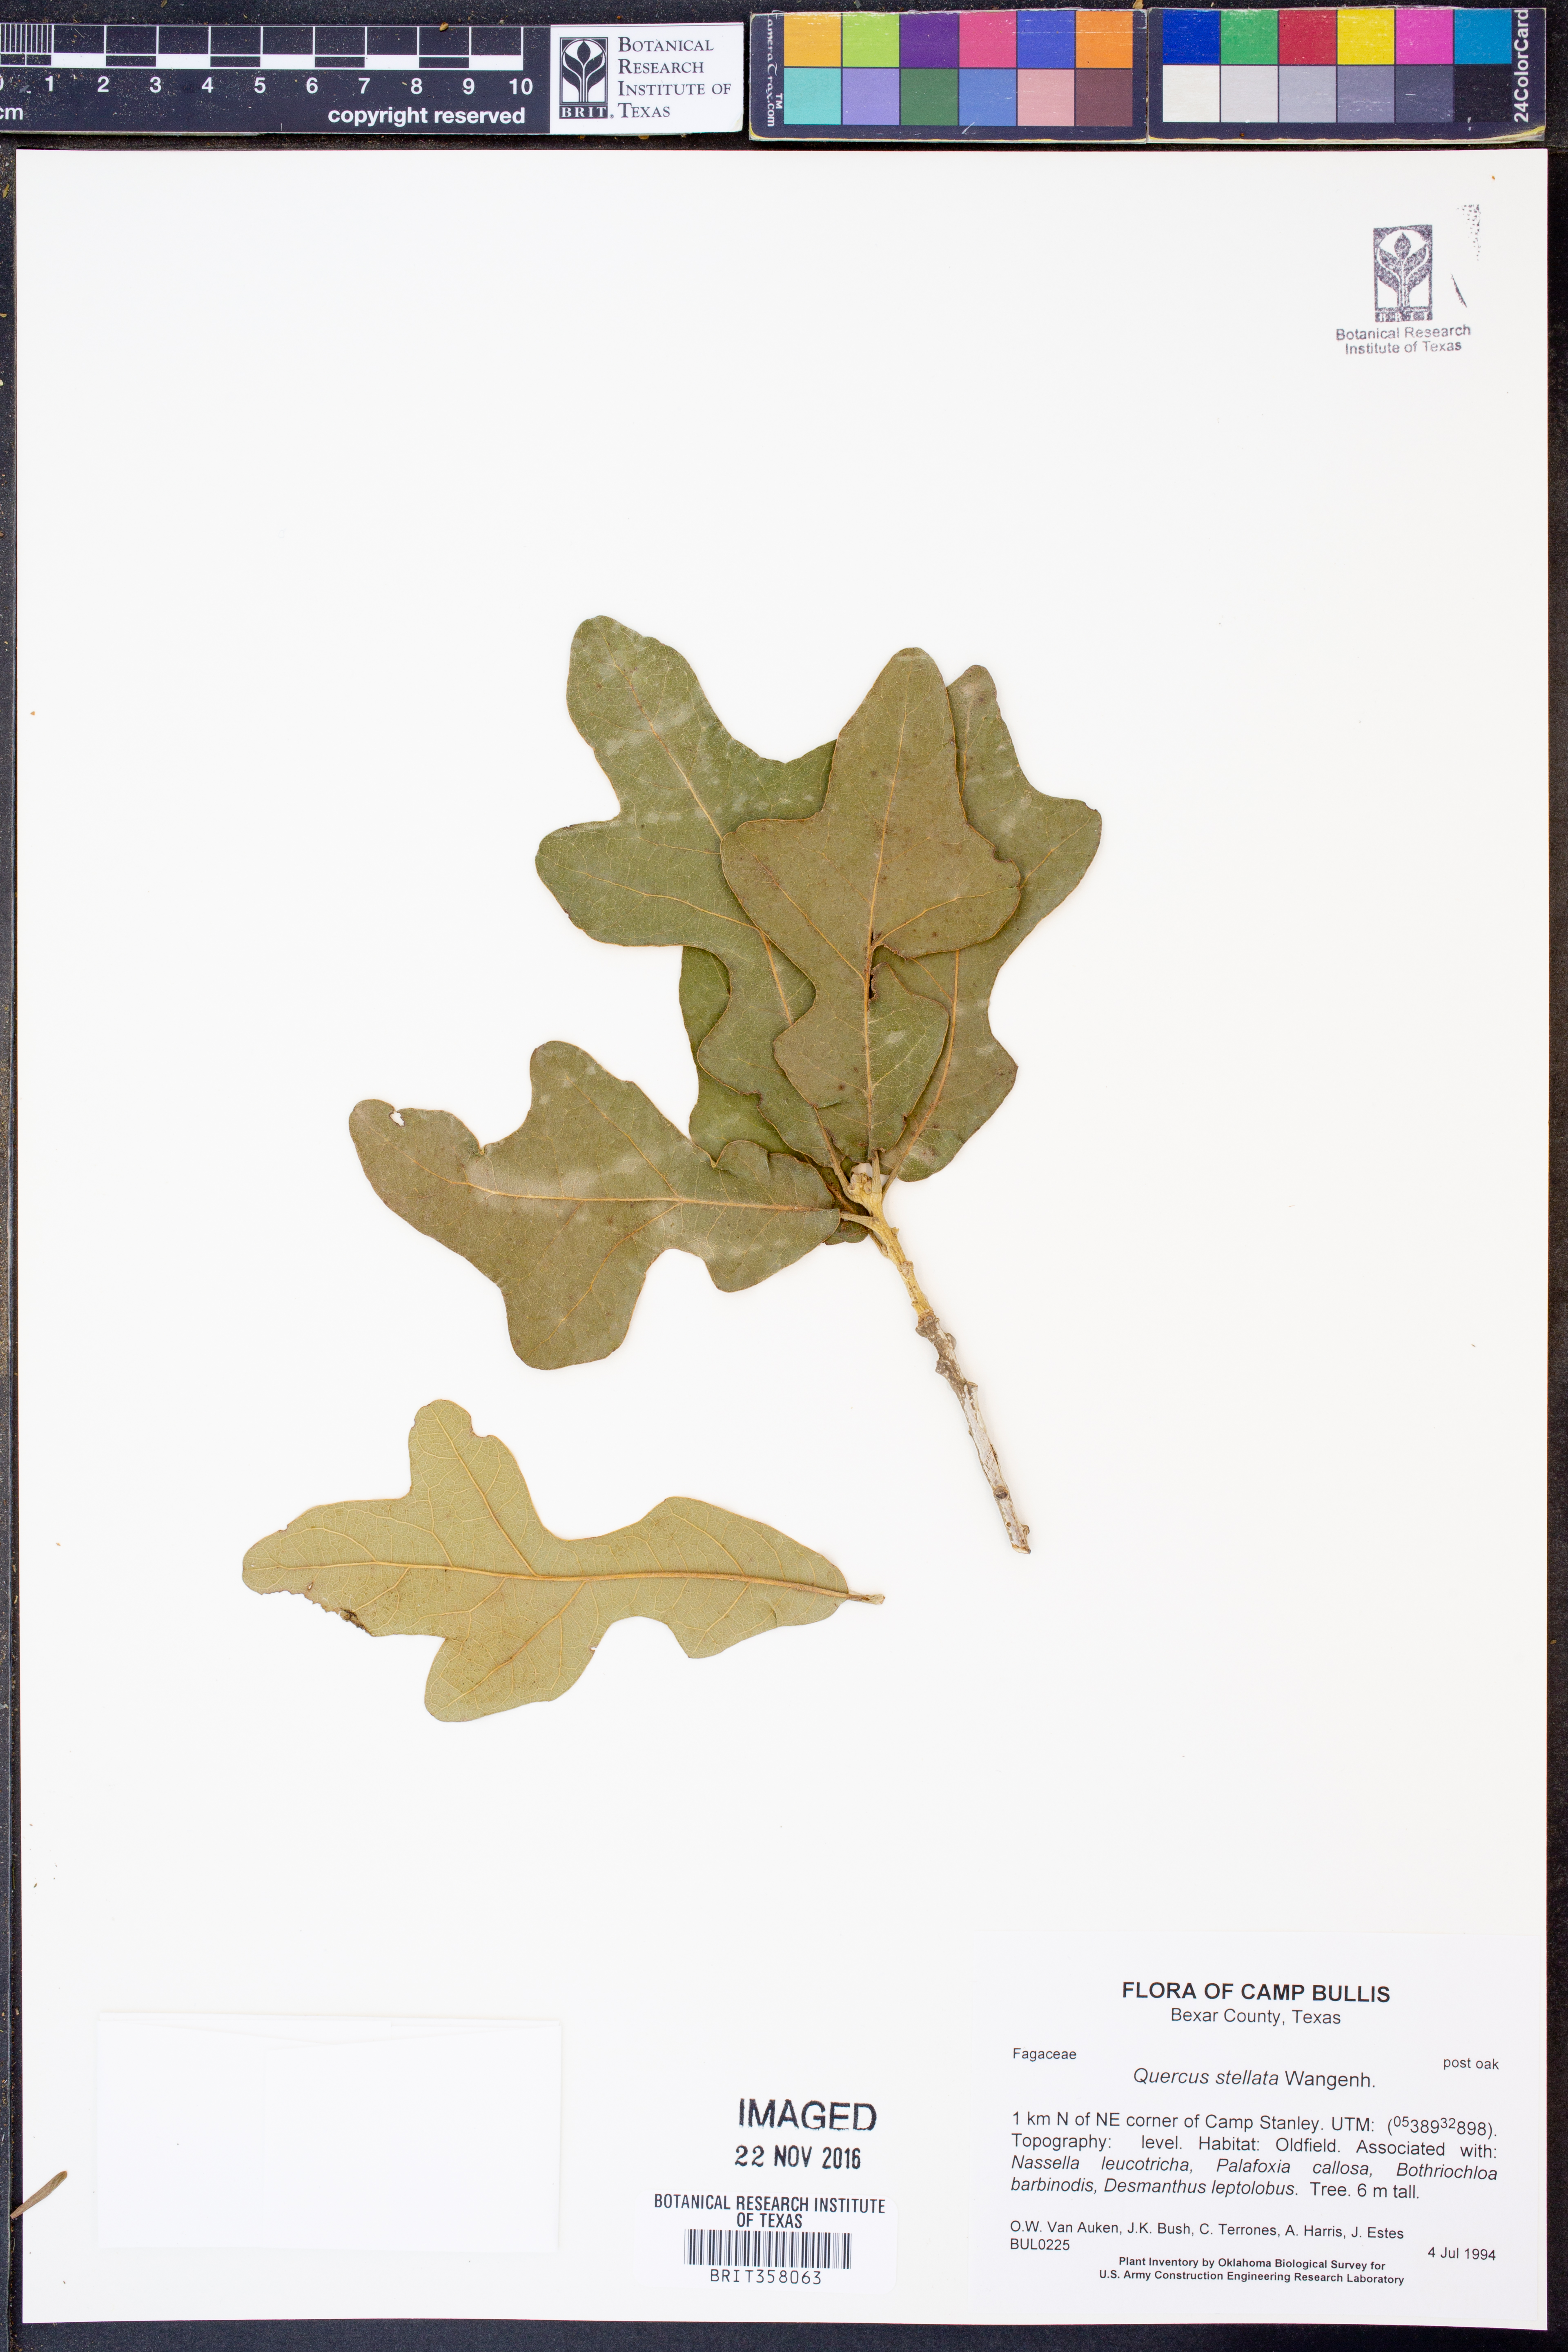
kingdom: Plantae
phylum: Tracheophyta
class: Magnoliopsida
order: Fagales
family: Fagaceae
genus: Quercus
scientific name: Quercus stellata
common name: Post oak
